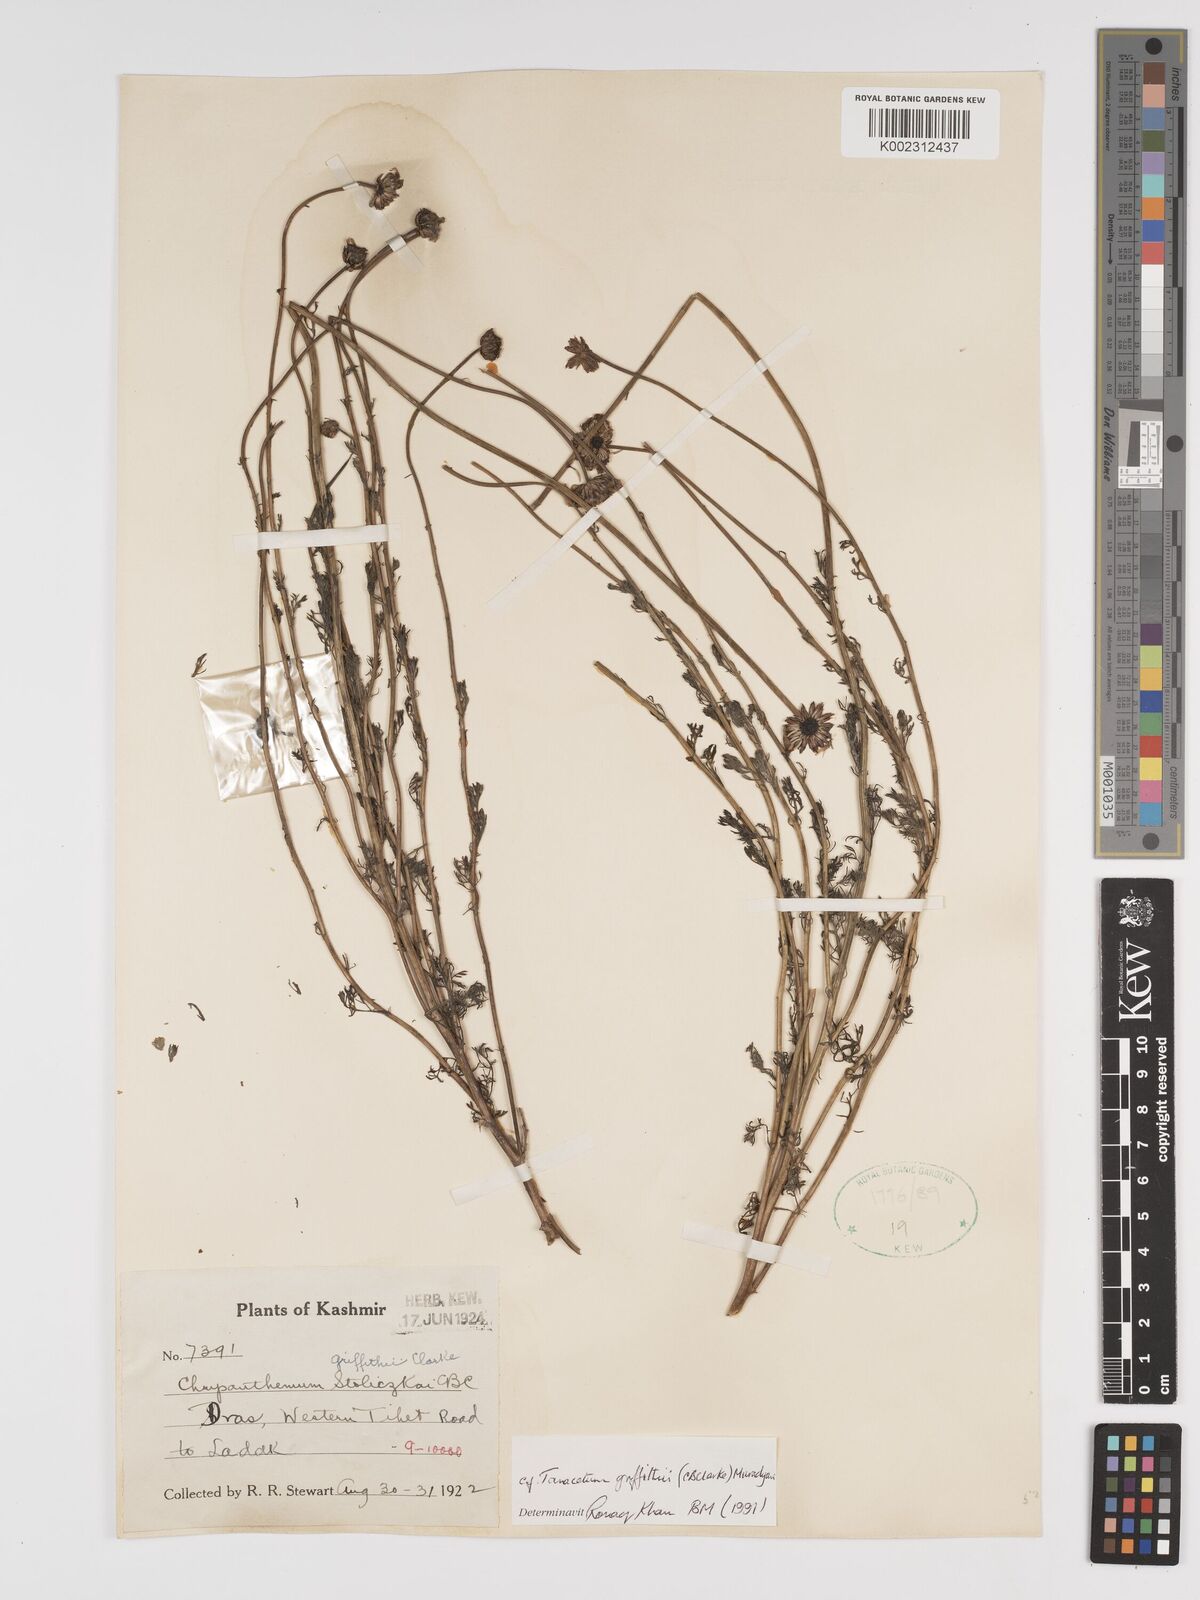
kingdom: Plantae
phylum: Tracheophyta
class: Magnoliopsida
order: Asterales
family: Asteraceae
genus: Tanacetum
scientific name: Tanacetum griffithii
